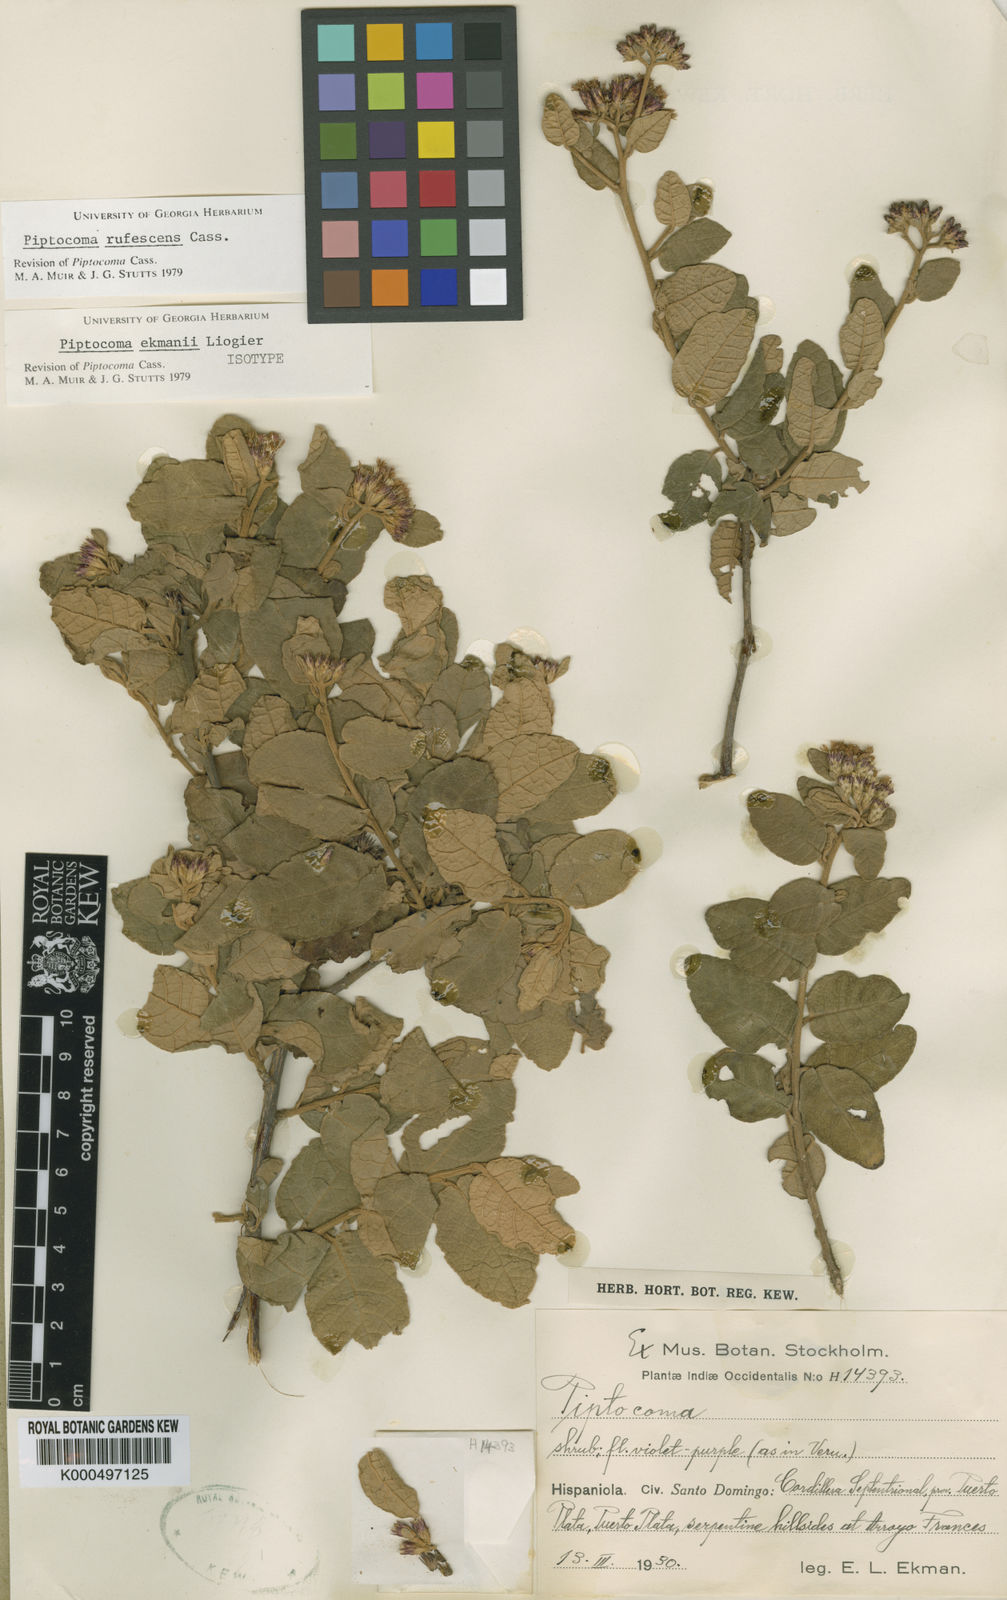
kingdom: Plantae
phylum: Tracheophyta
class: Magnoliopsida
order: Asterales
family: Asteraceae
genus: Piptocoma
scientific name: Piptocoma rufescens
